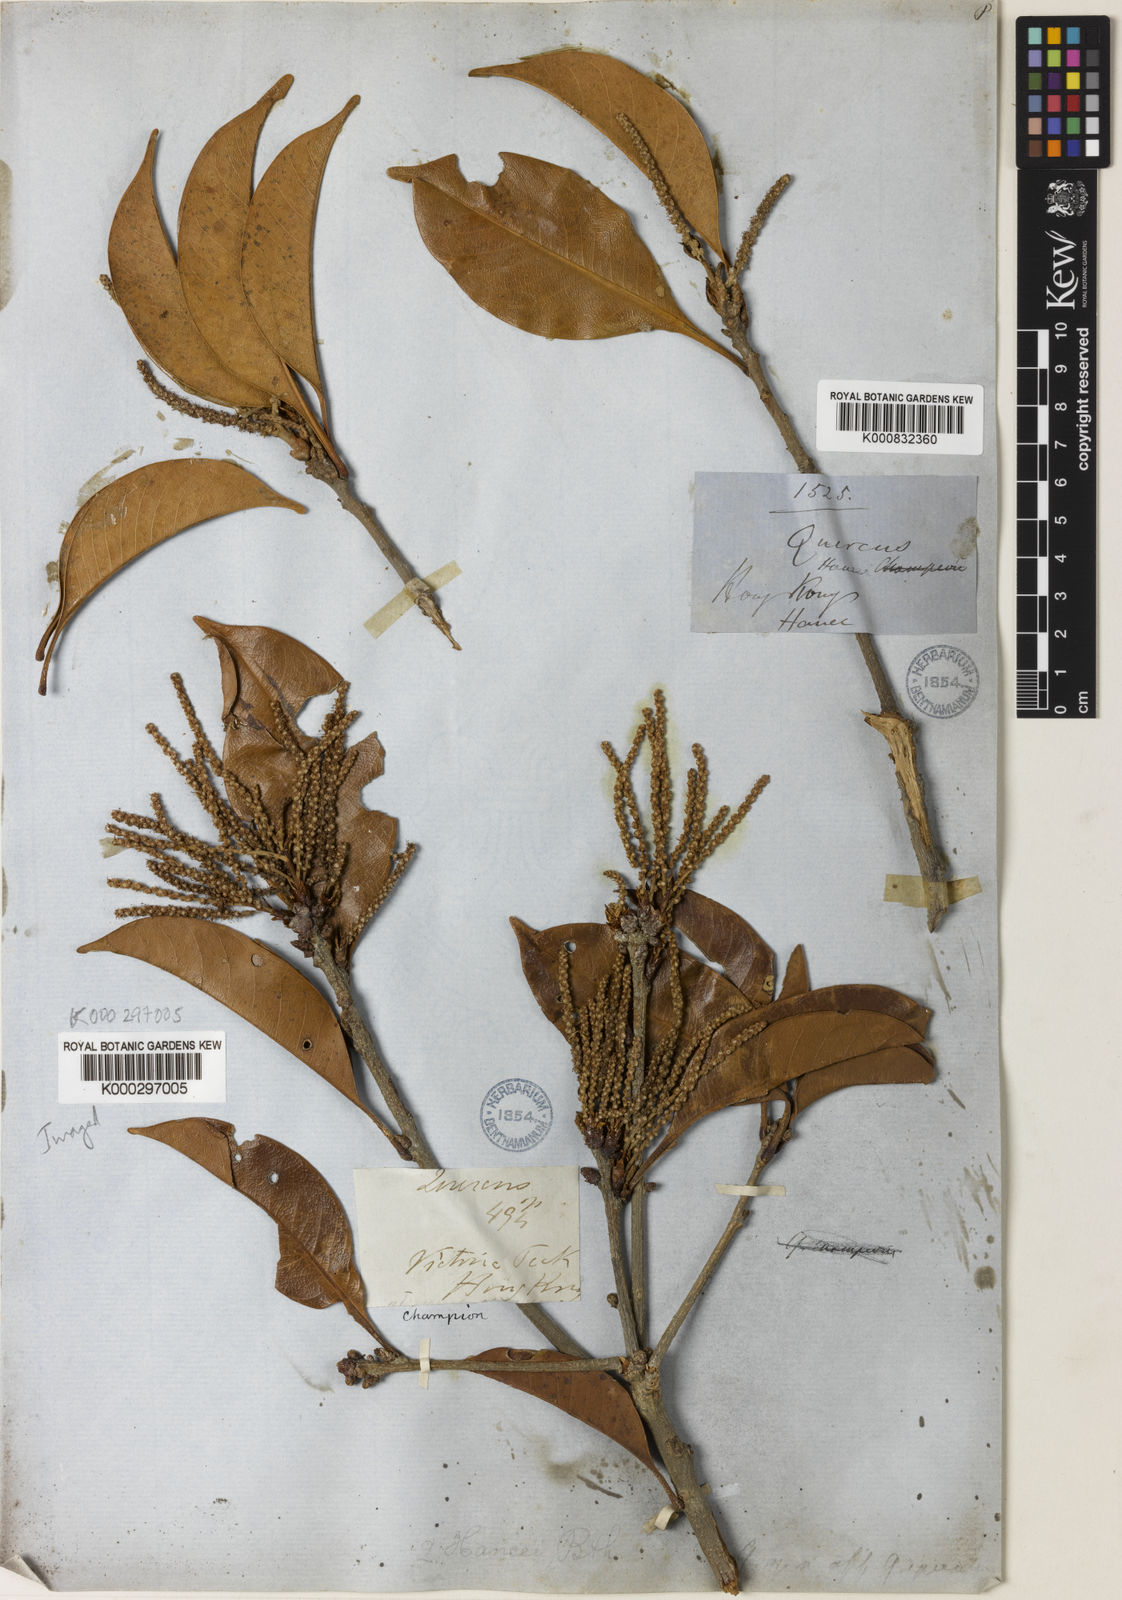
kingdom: Plantae
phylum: Tracheophyta
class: Magnoliopsida
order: Fagales
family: Fagaceae
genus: Lithocarpus
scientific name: Lithocarpus hancei
